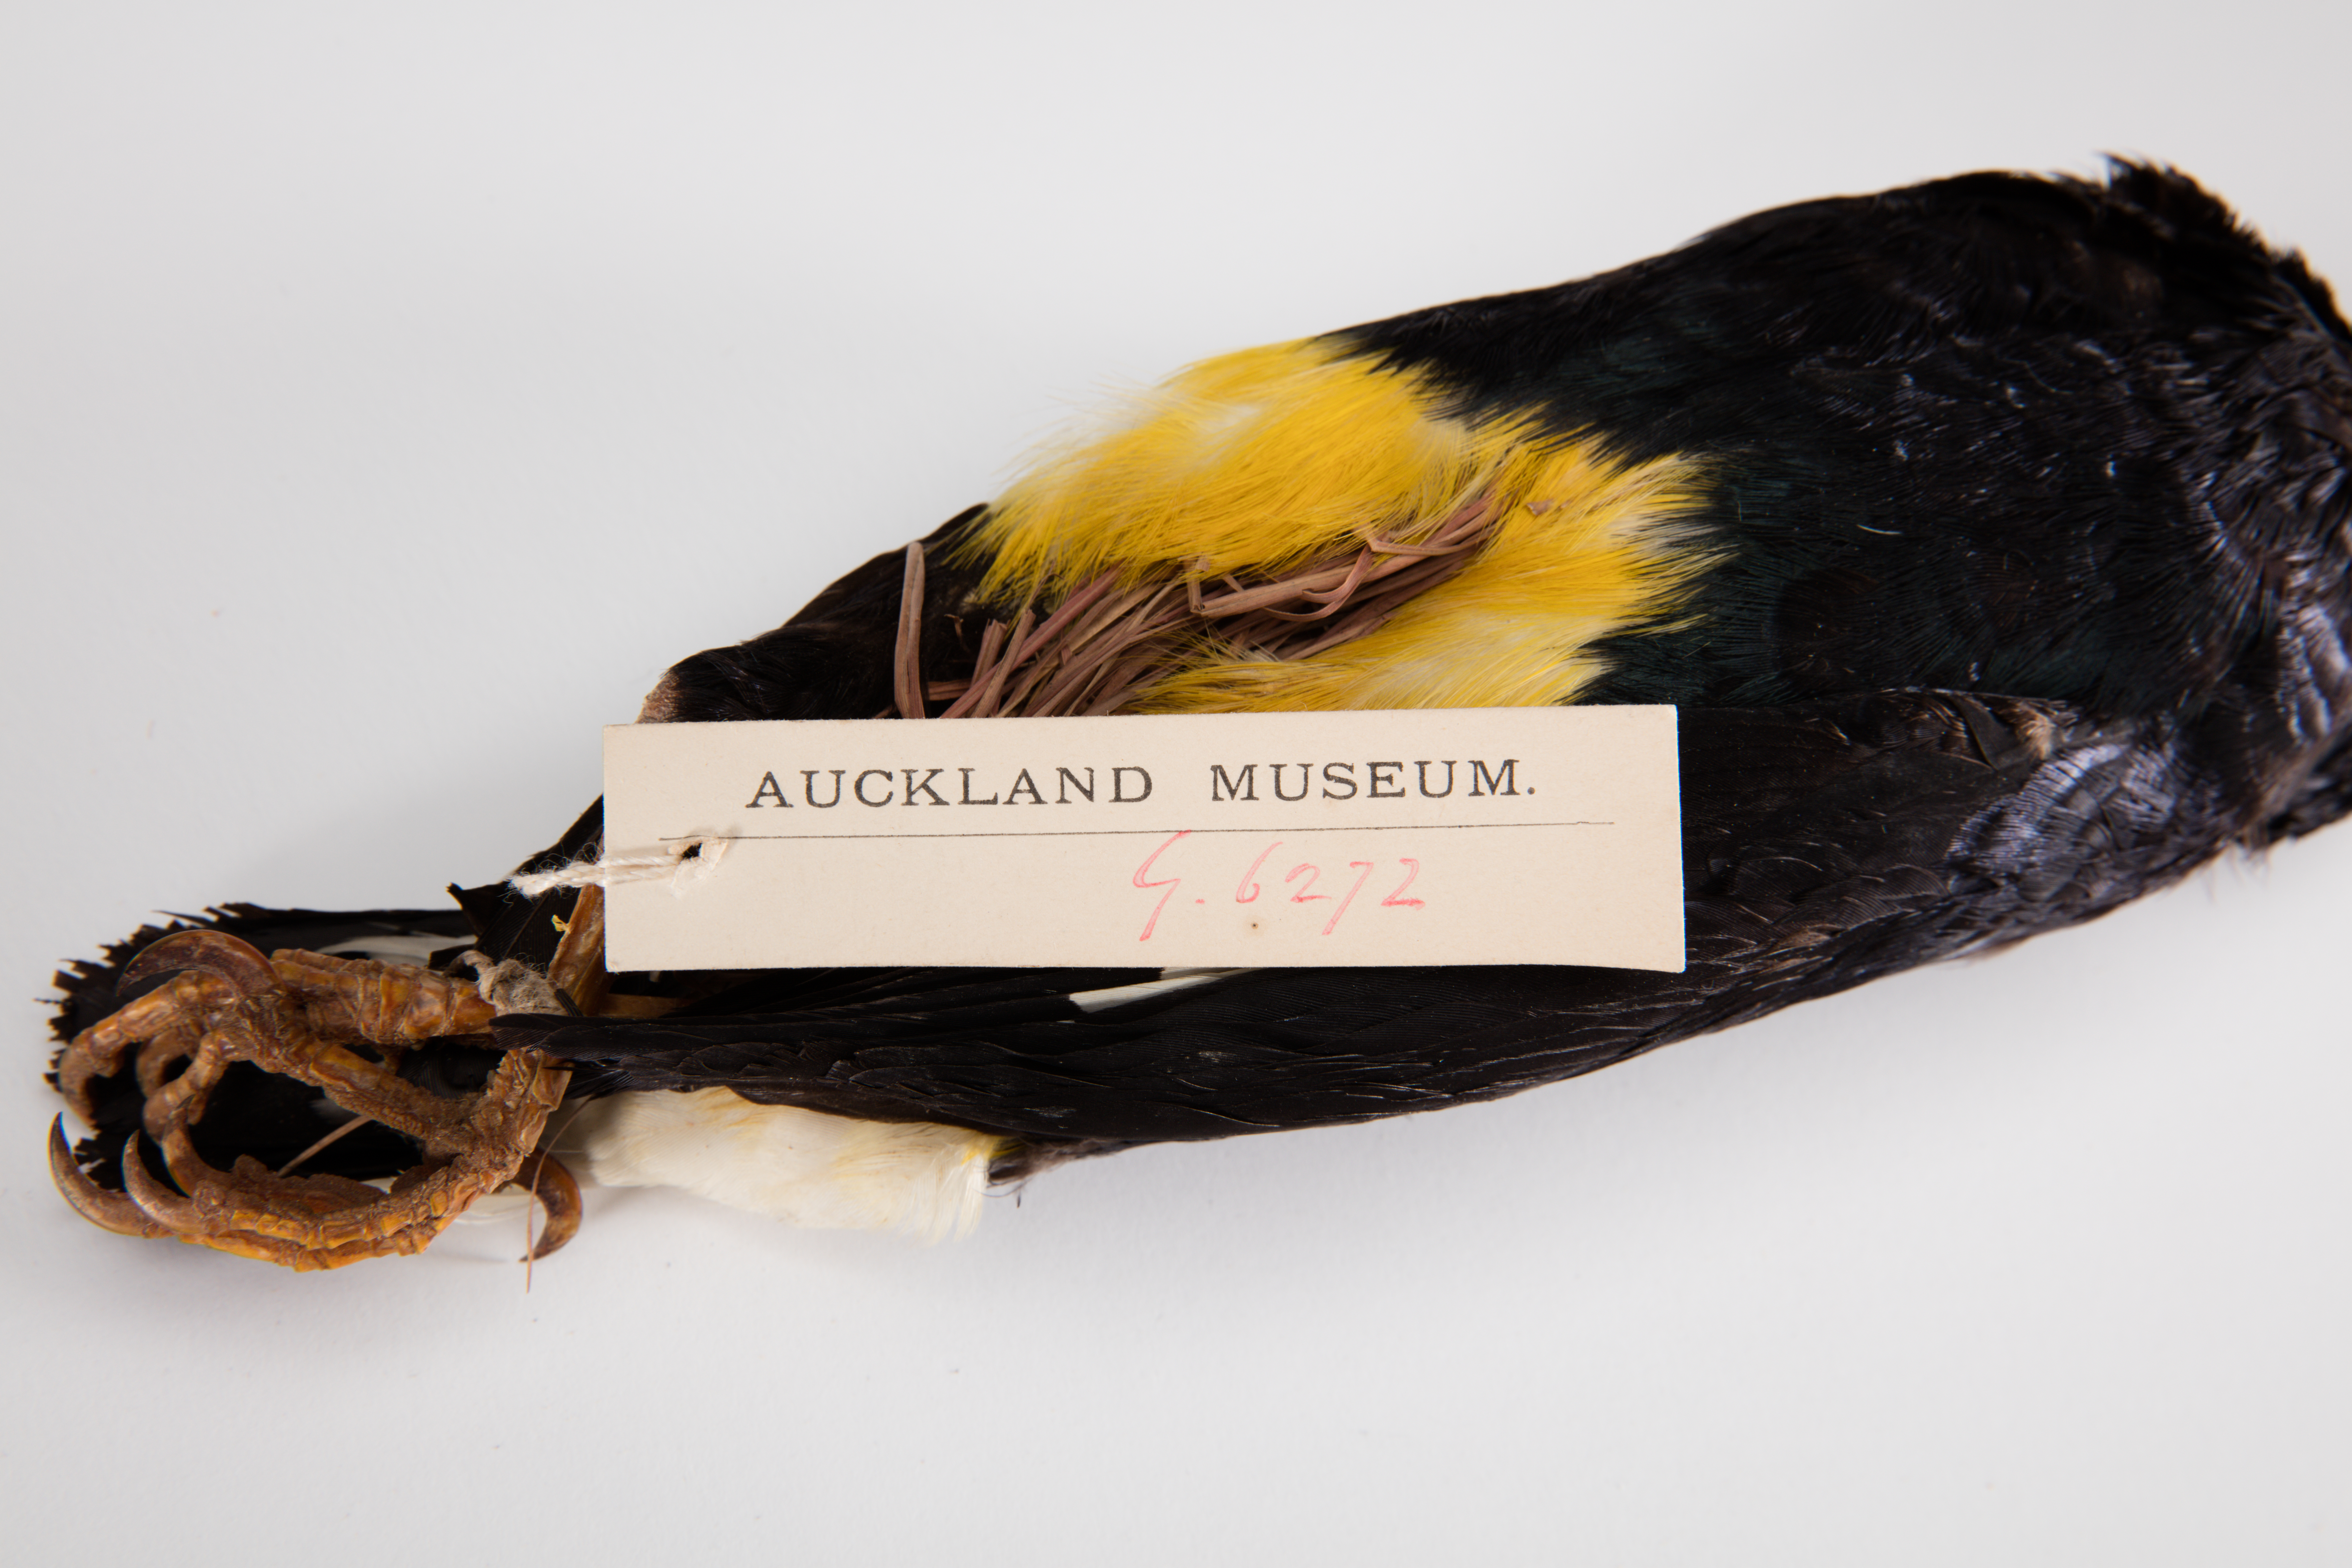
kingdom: Animalia
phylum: Chordata
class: Aves
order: Passeriformes
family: Sturnidae
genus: Mino
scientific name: Mino dumontii
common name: Yellow-faced myna
